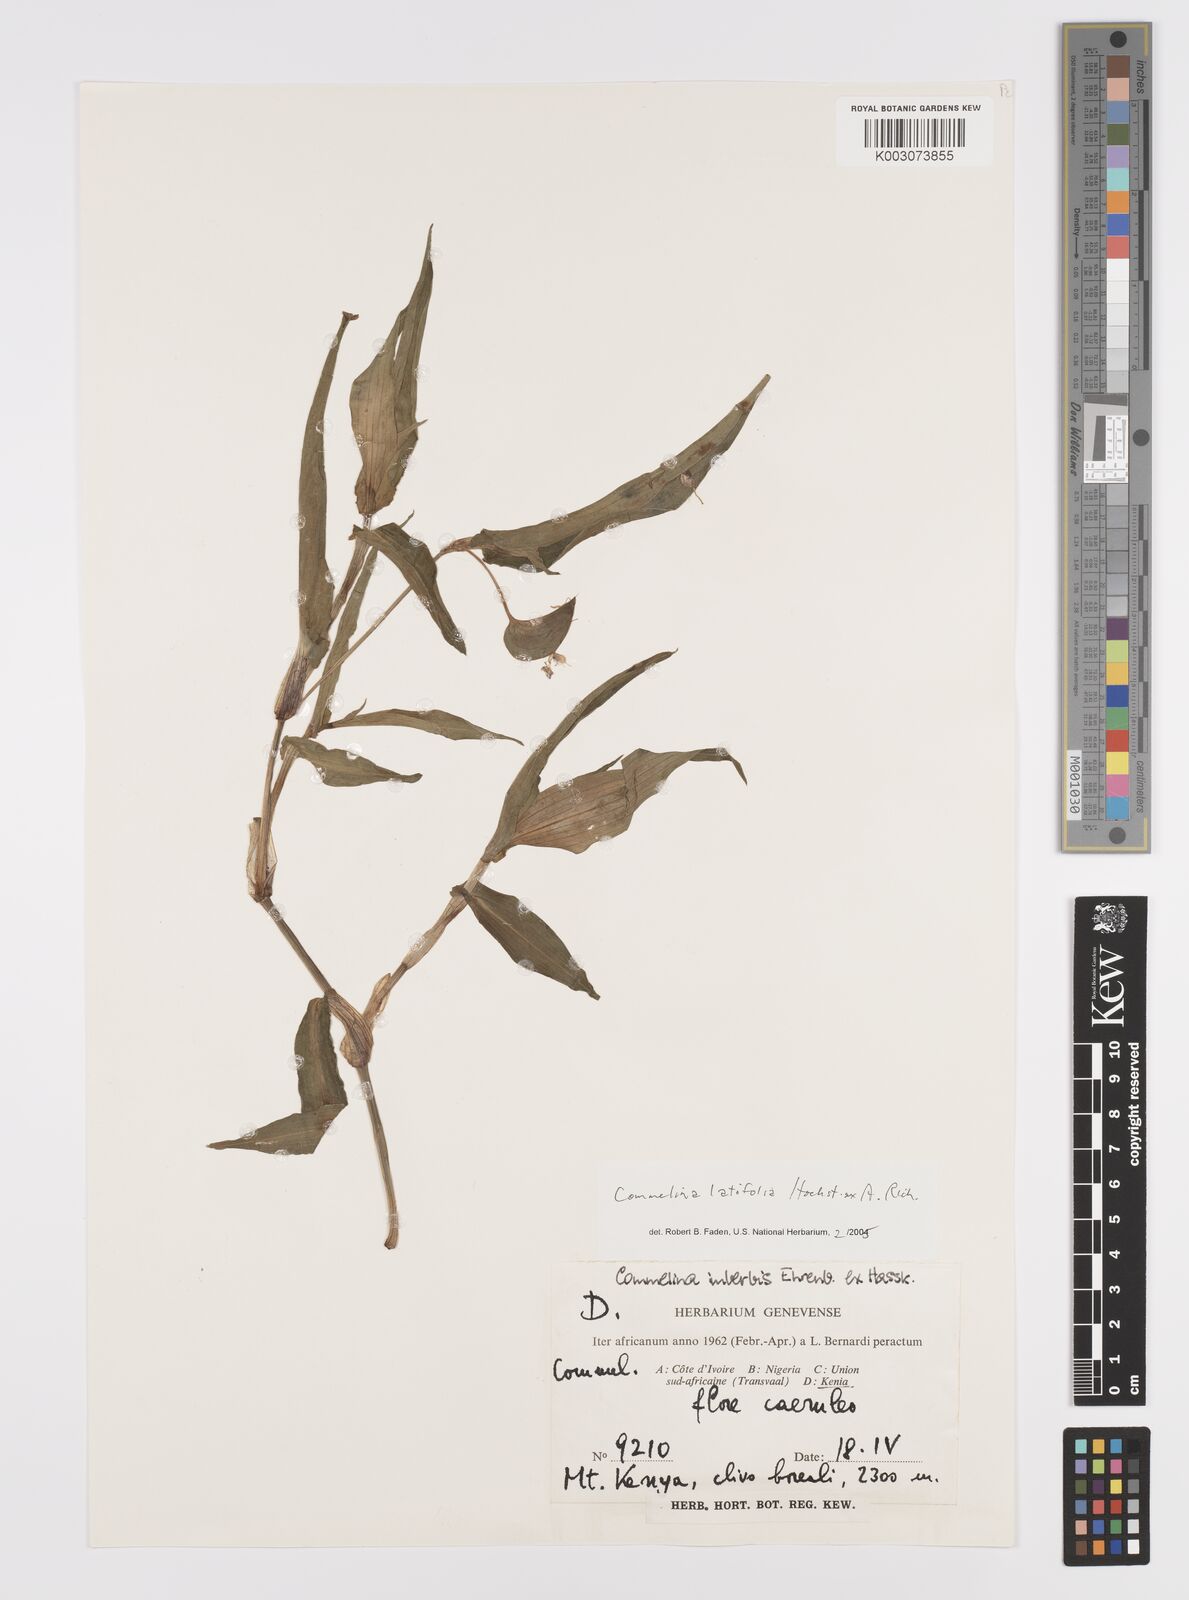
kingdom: Plantae
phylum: Tracheophyta
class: Liliopsida
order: Commelinales
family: Commelinaceae
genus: Commelina
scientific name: Commelina latifolia
